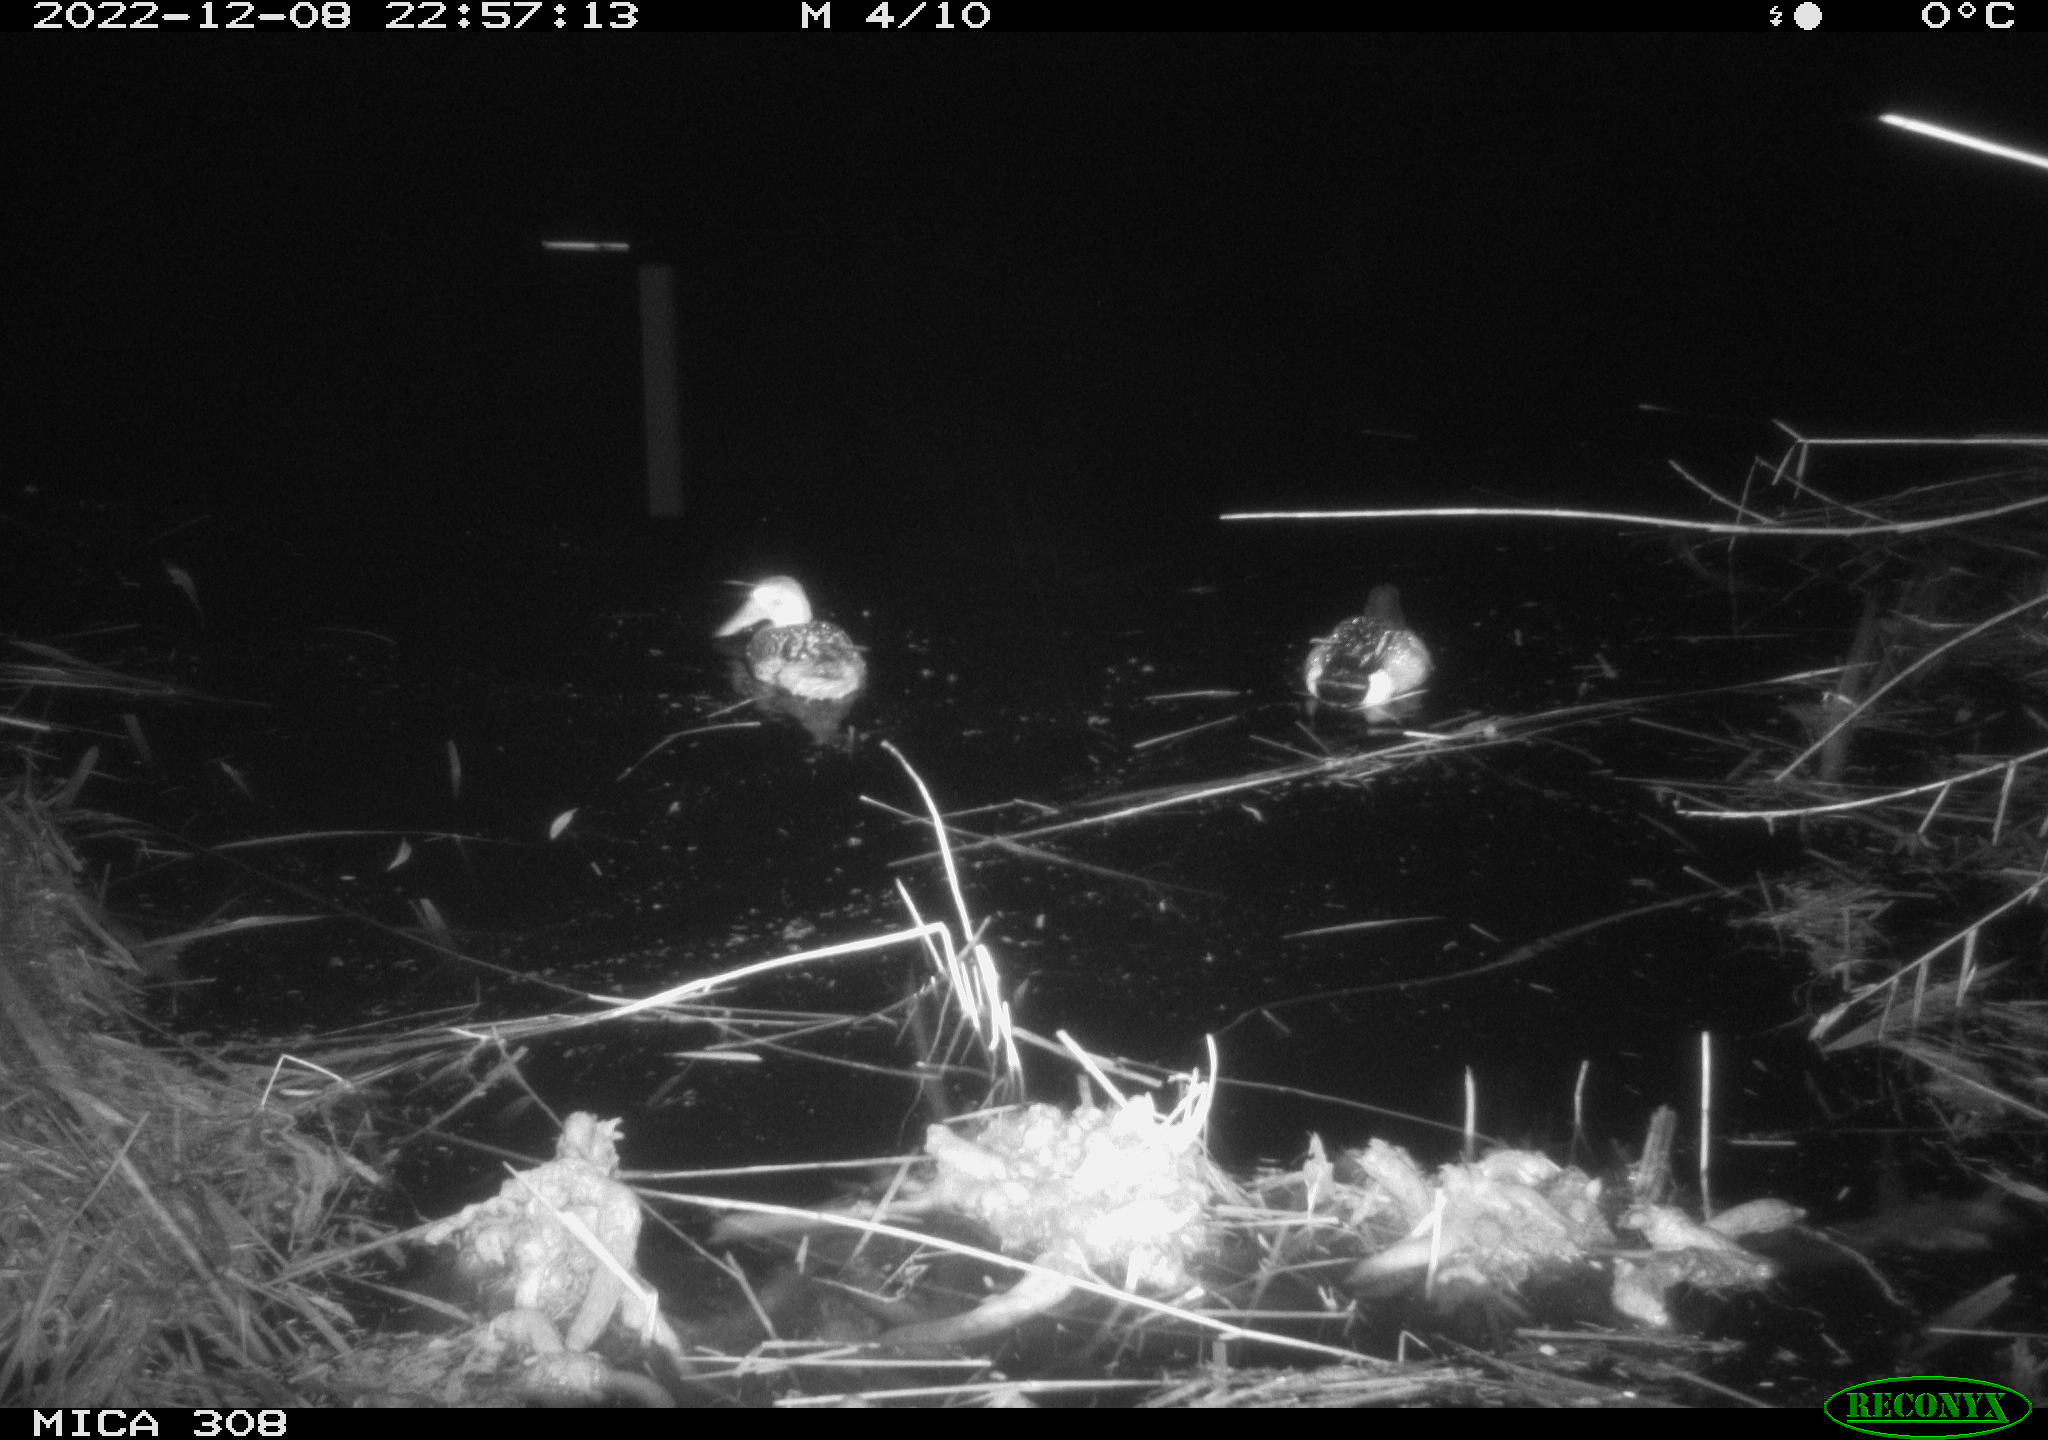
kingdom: Animalia
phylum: Chordata
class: Aves
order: Anseriformes
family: Anatidae
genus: Anas
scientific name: Anas
